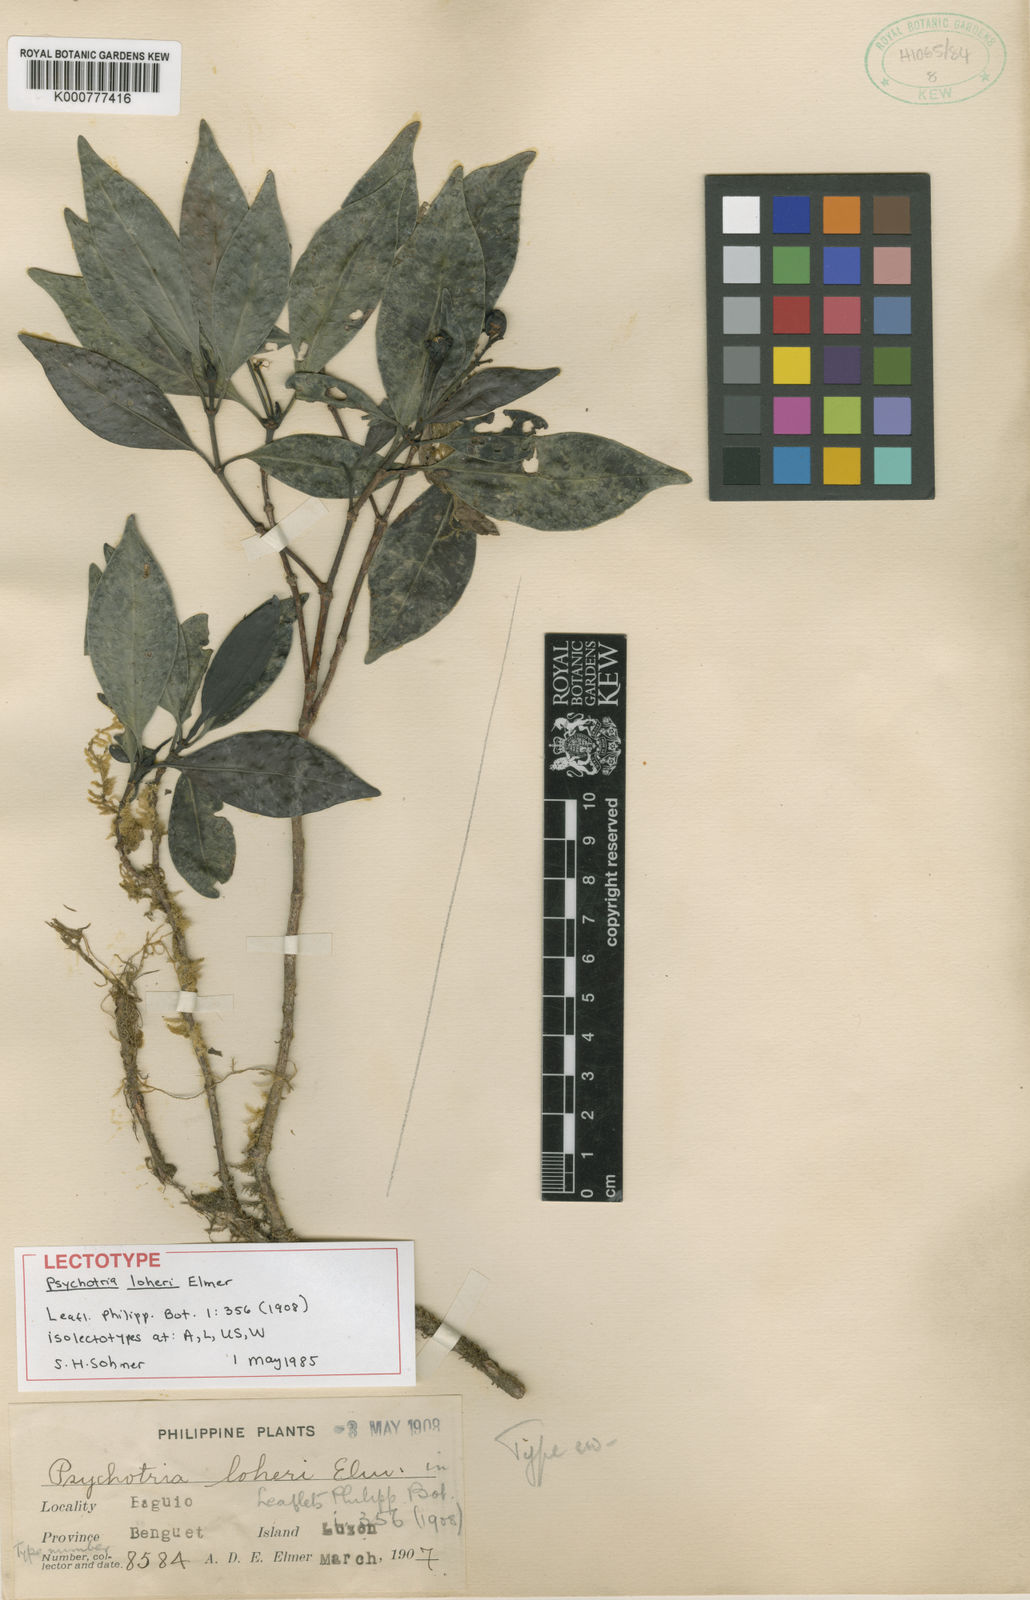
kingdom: Plantae
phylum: Tracheophyta
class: Magnoliopsida
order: Gentianales
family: Rubiaceae
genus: Psychotria
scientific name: Psychotria loheri
